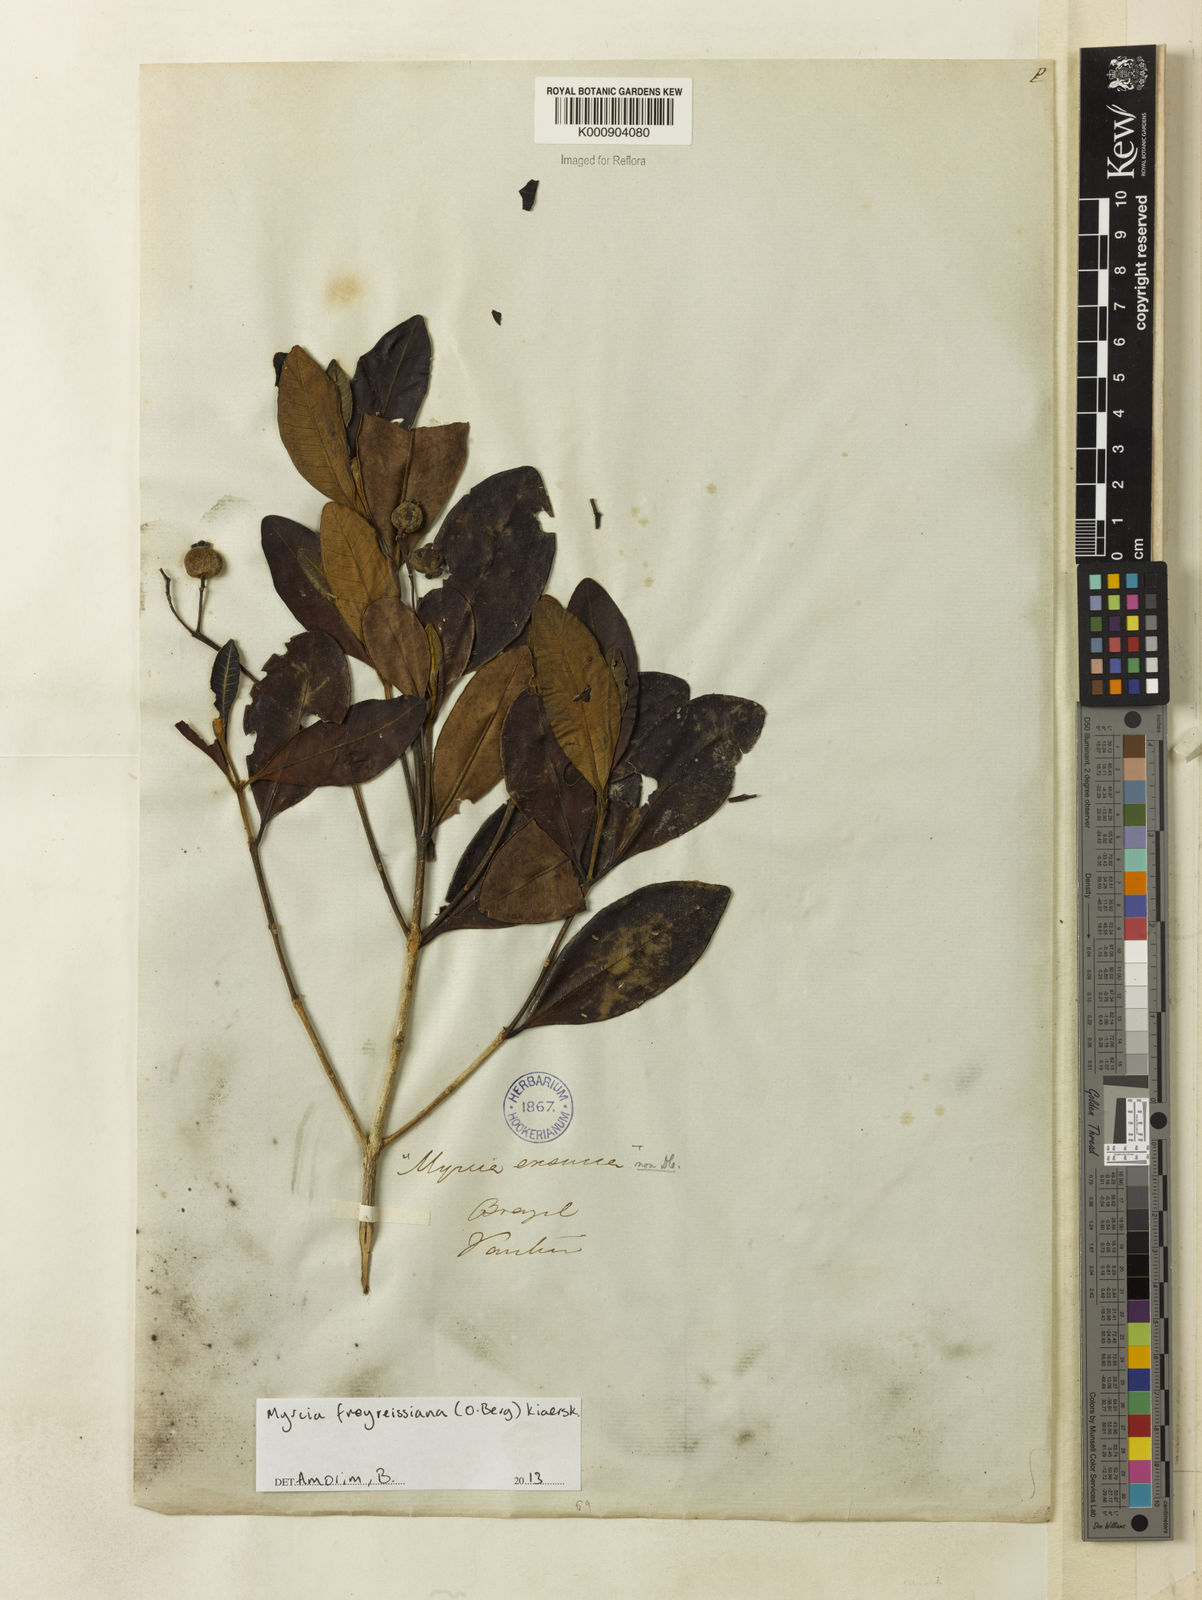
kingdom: Plantae
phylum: Tracheophyta
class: Magnoliopsida
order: Myrtales
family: Myrtaceae
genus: Myrcia
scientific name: Myrcia freyreissiana
